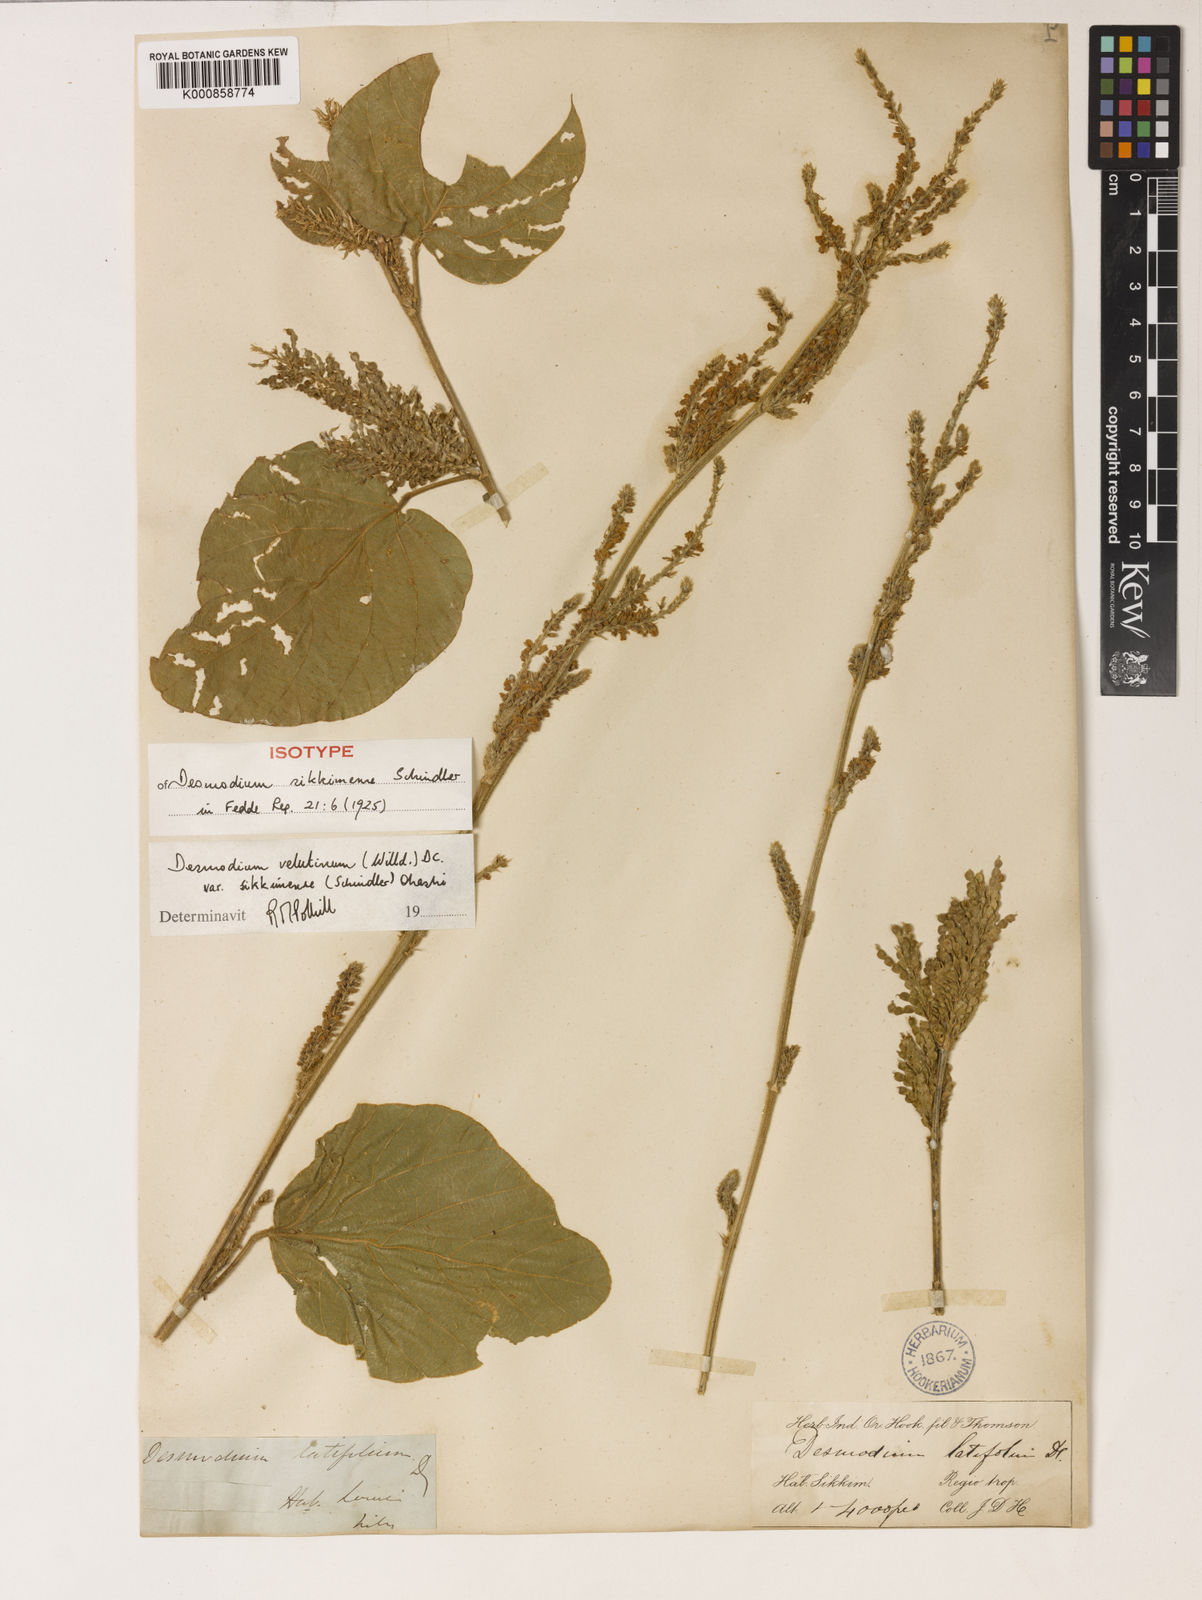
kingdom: Plantae
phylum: Tracheophyta
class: Magnoliopsida
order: Fabales
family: Fabaceae
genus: Polhillides
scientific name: Polhillides velutina
